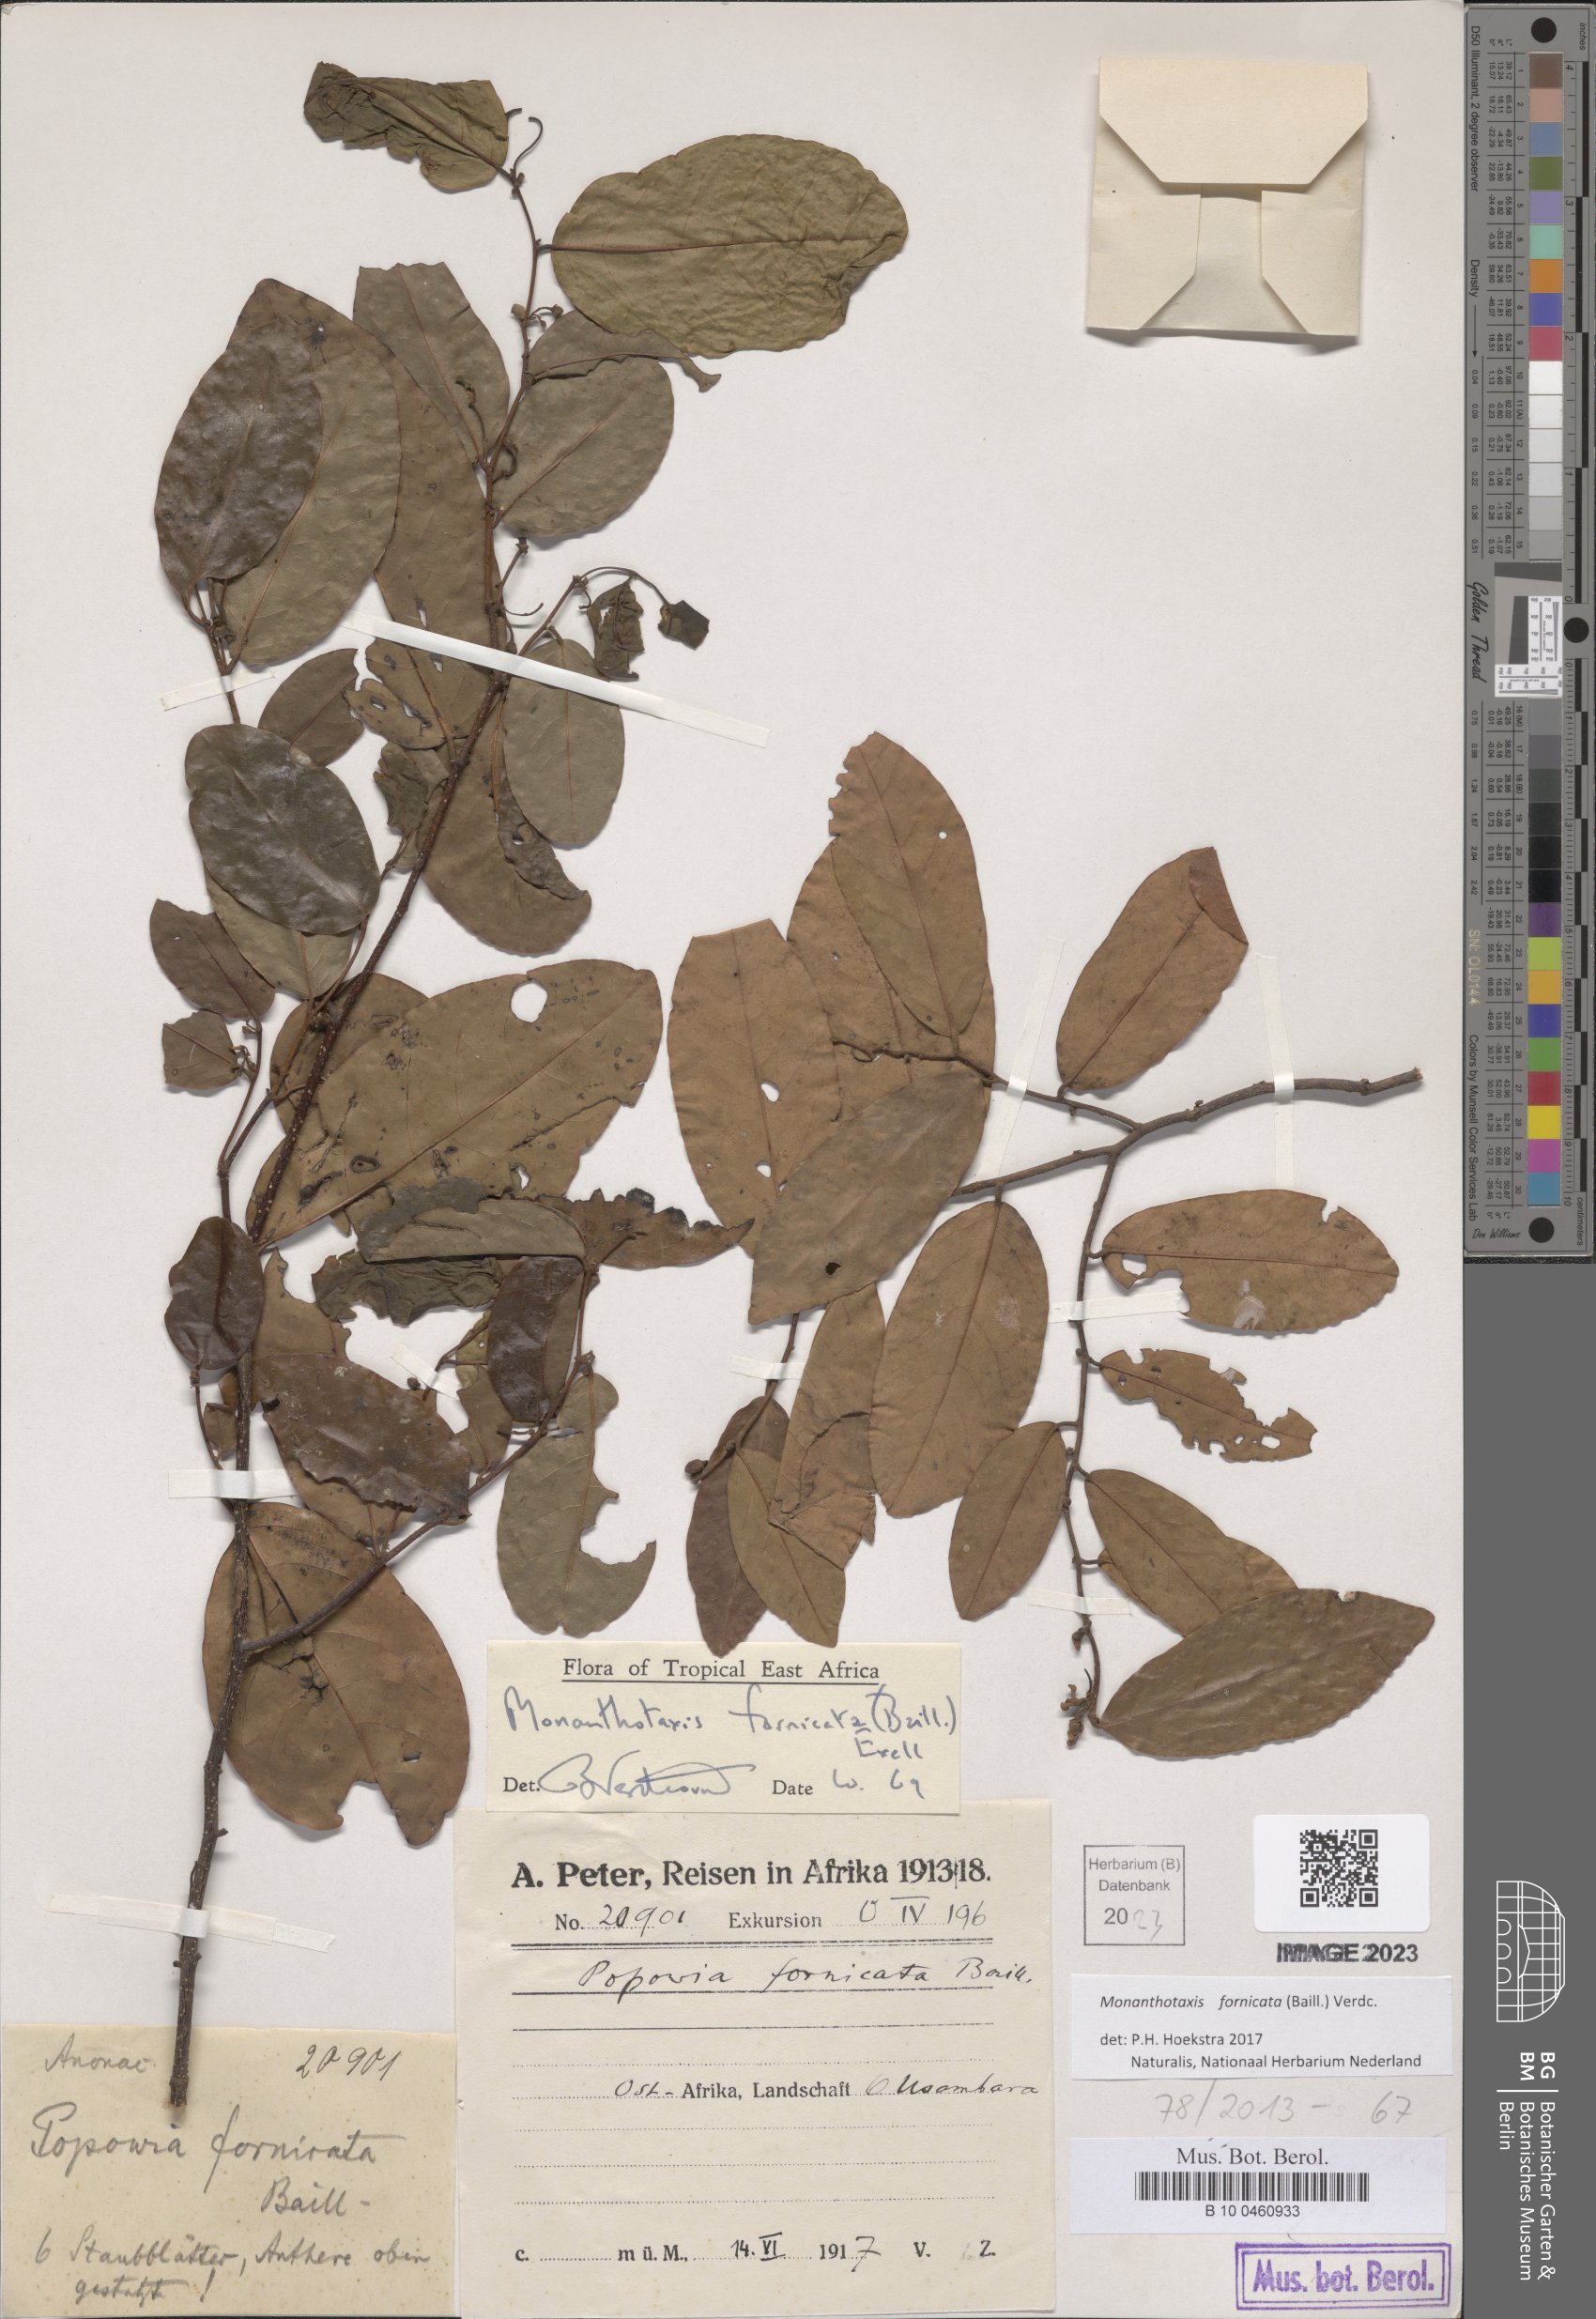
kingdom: Plantae
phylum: Tracheophyta
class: Magnoliopsida
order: Magnoliales
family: Annonaceae
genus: Monanthotaxis
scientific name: Monanthotaxis fornicata
